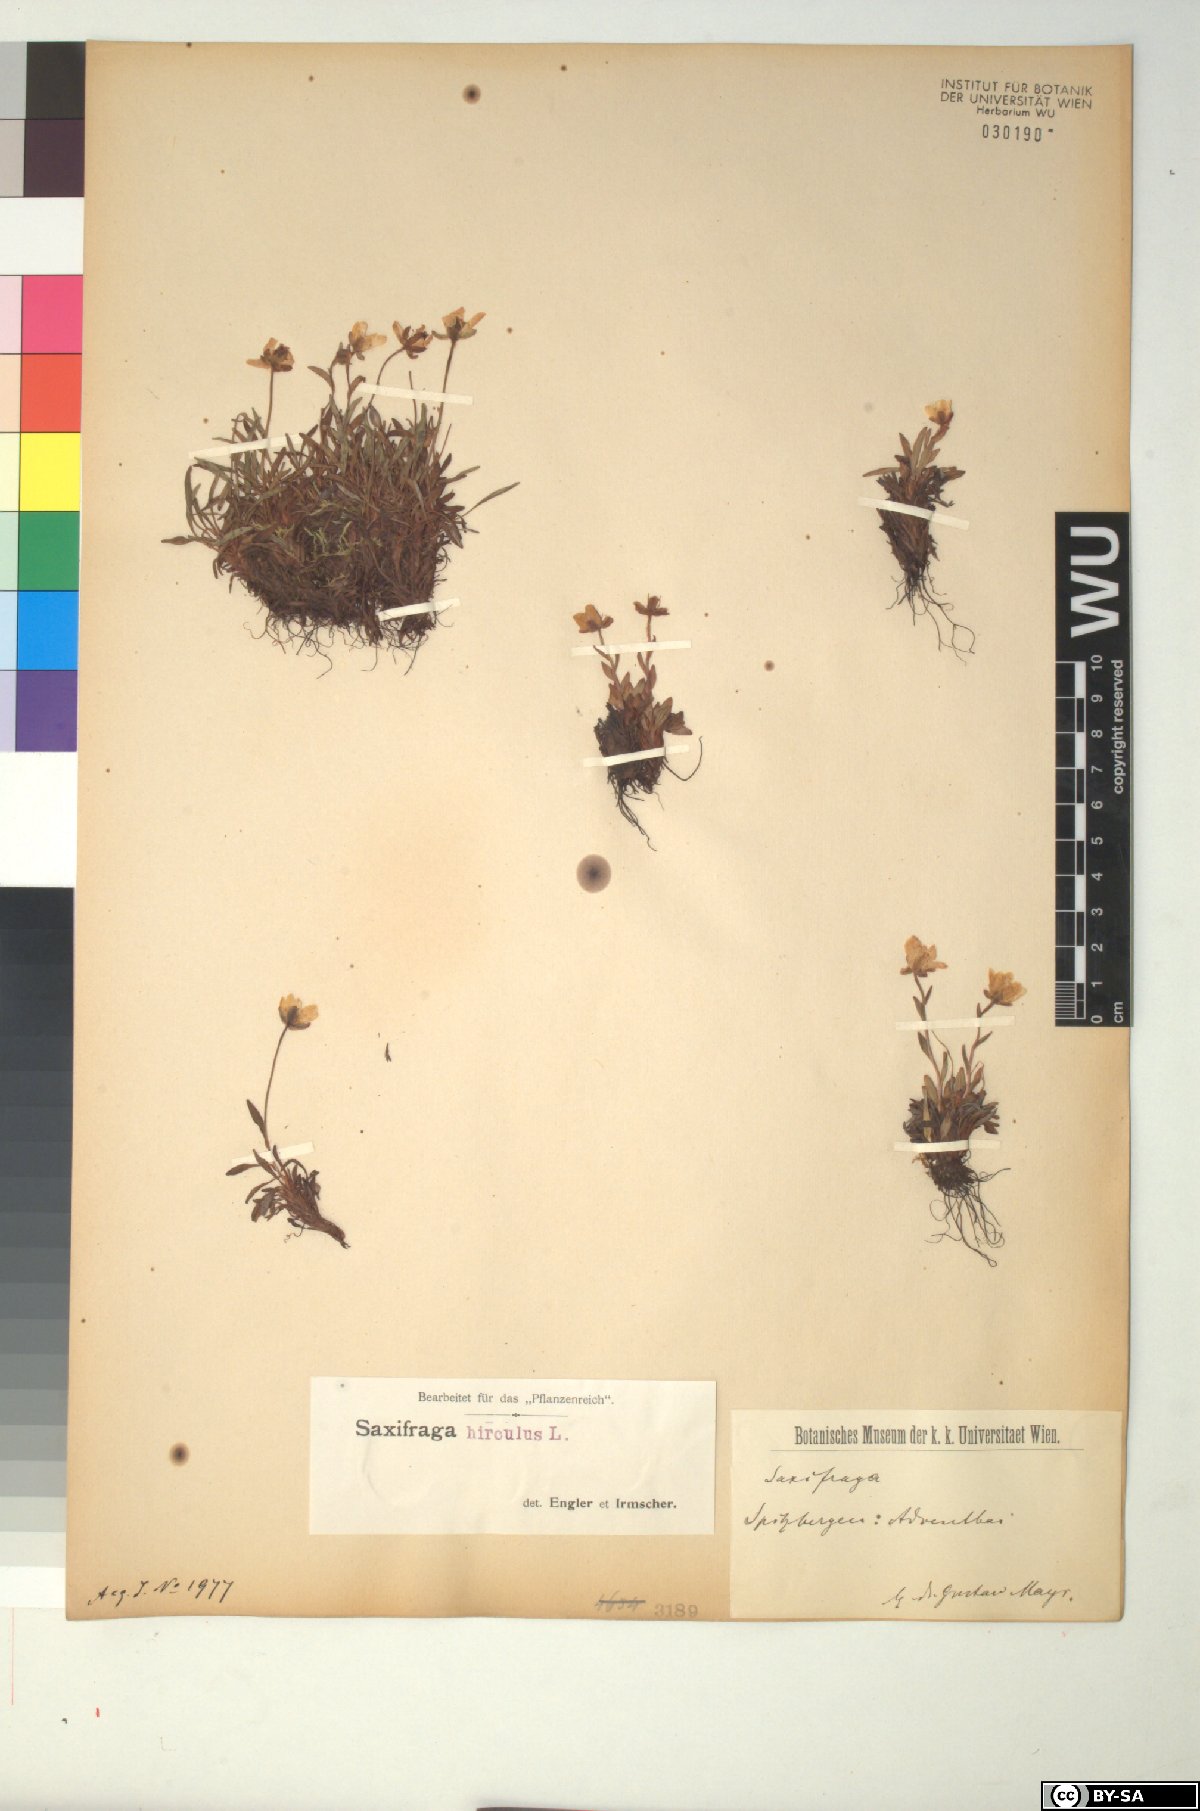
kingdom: Plantae
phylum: Tracheophyta
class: Magnoliopsida
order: Saxifragales
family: Saxifragaceae
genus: Saxifraga
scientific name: Saxifraga hirculus
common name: Yellow marsh saxifrage
